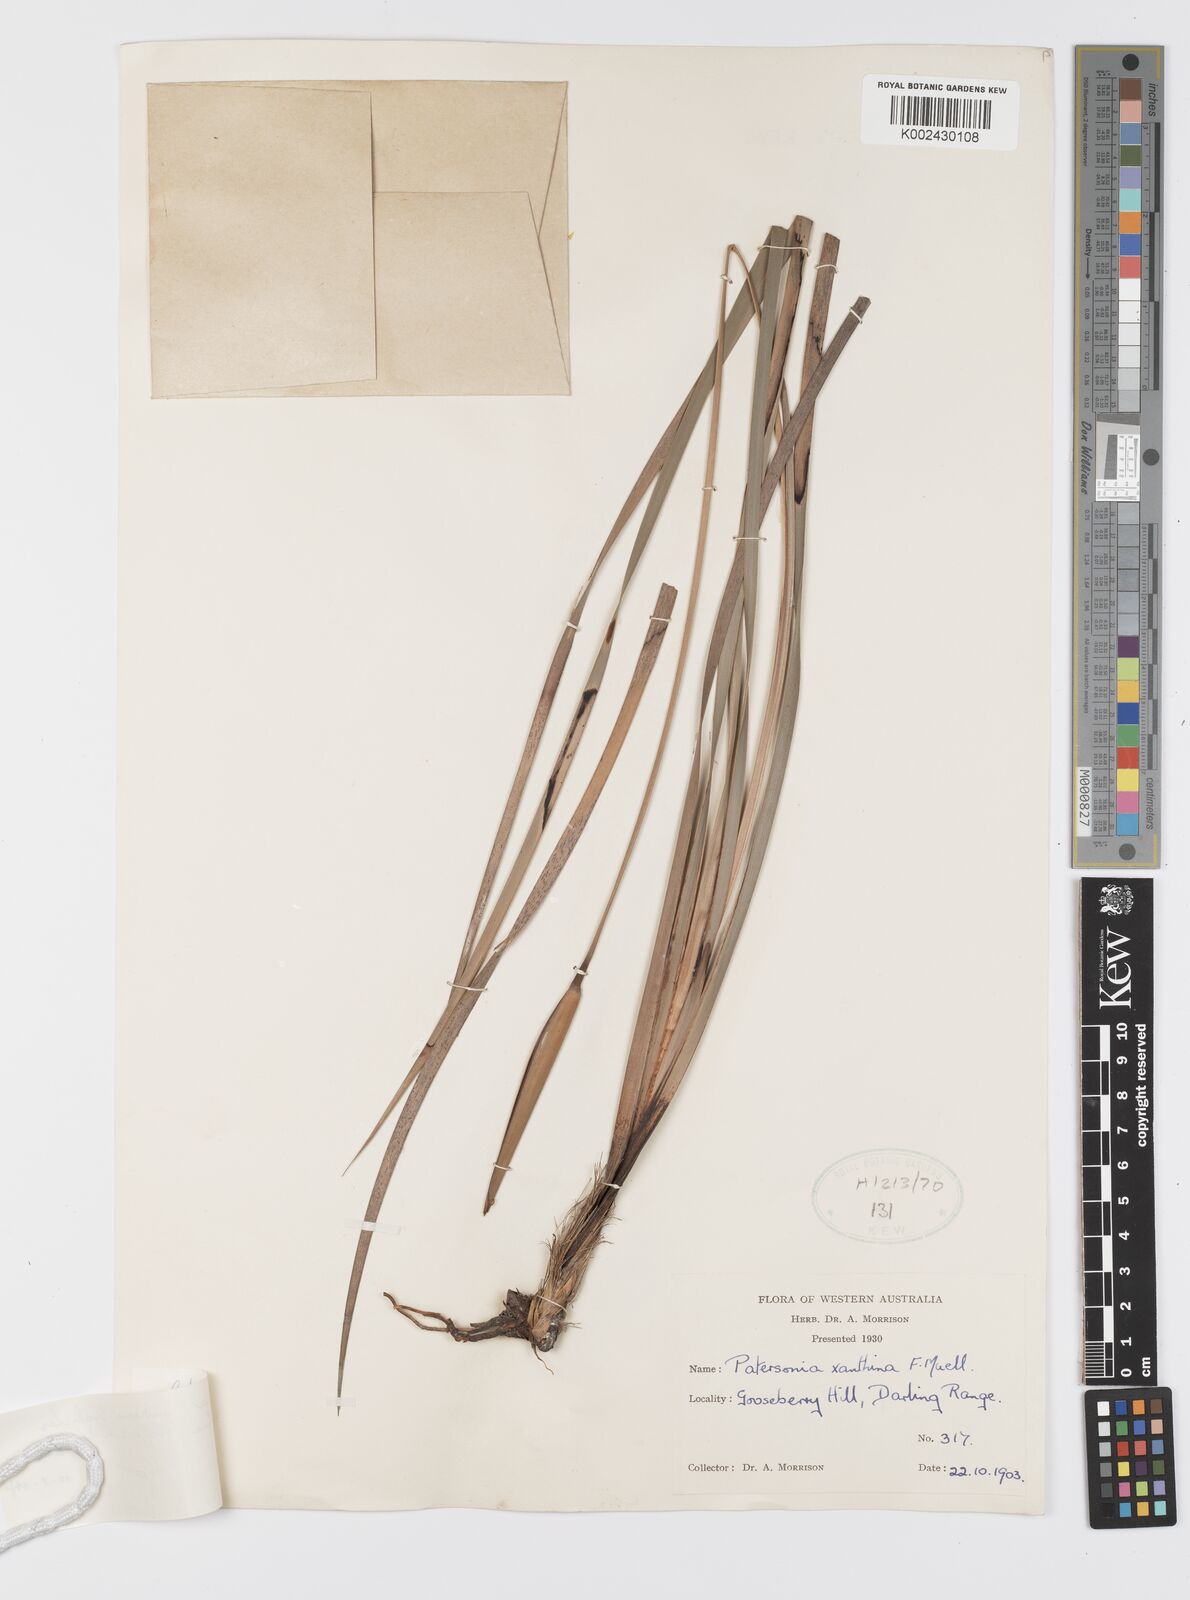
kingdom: Plantae
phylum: Tracheophyta
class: Liliopsida
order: Asparagales
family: Iridaceae
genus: Patersonia
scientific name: Patersonia umbrosa
